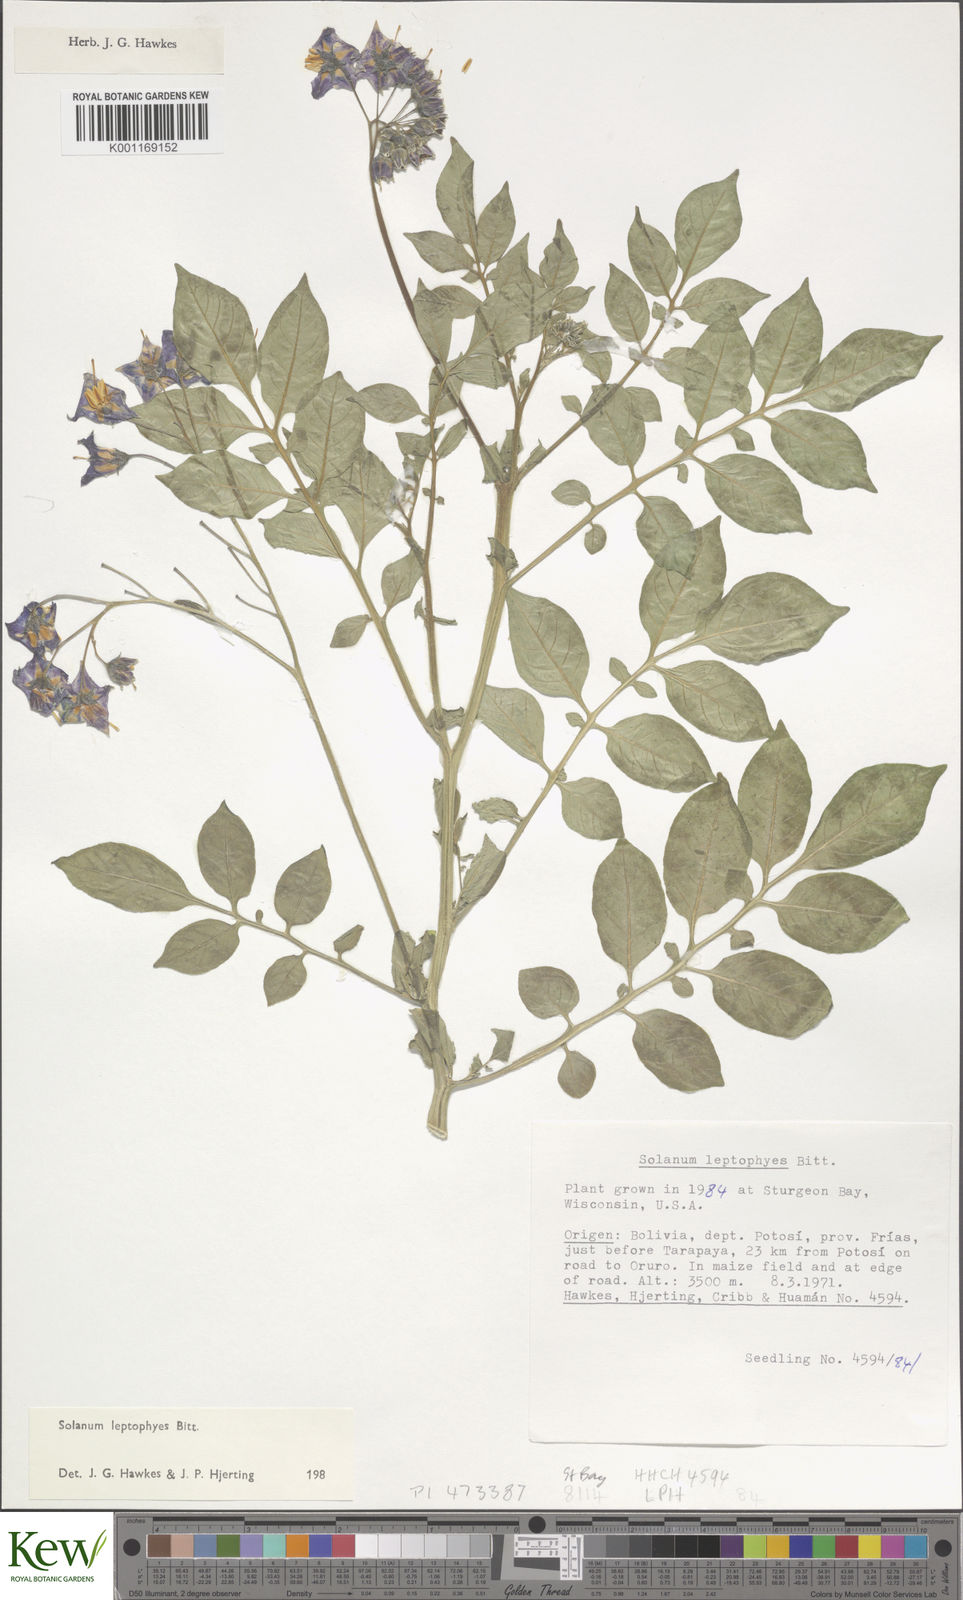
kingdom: Plantae
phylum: Tracheophyta
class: Magnoliopsida
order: Solanales
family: Solanaceae
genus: Solanum
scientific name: Solanum brevicaule
